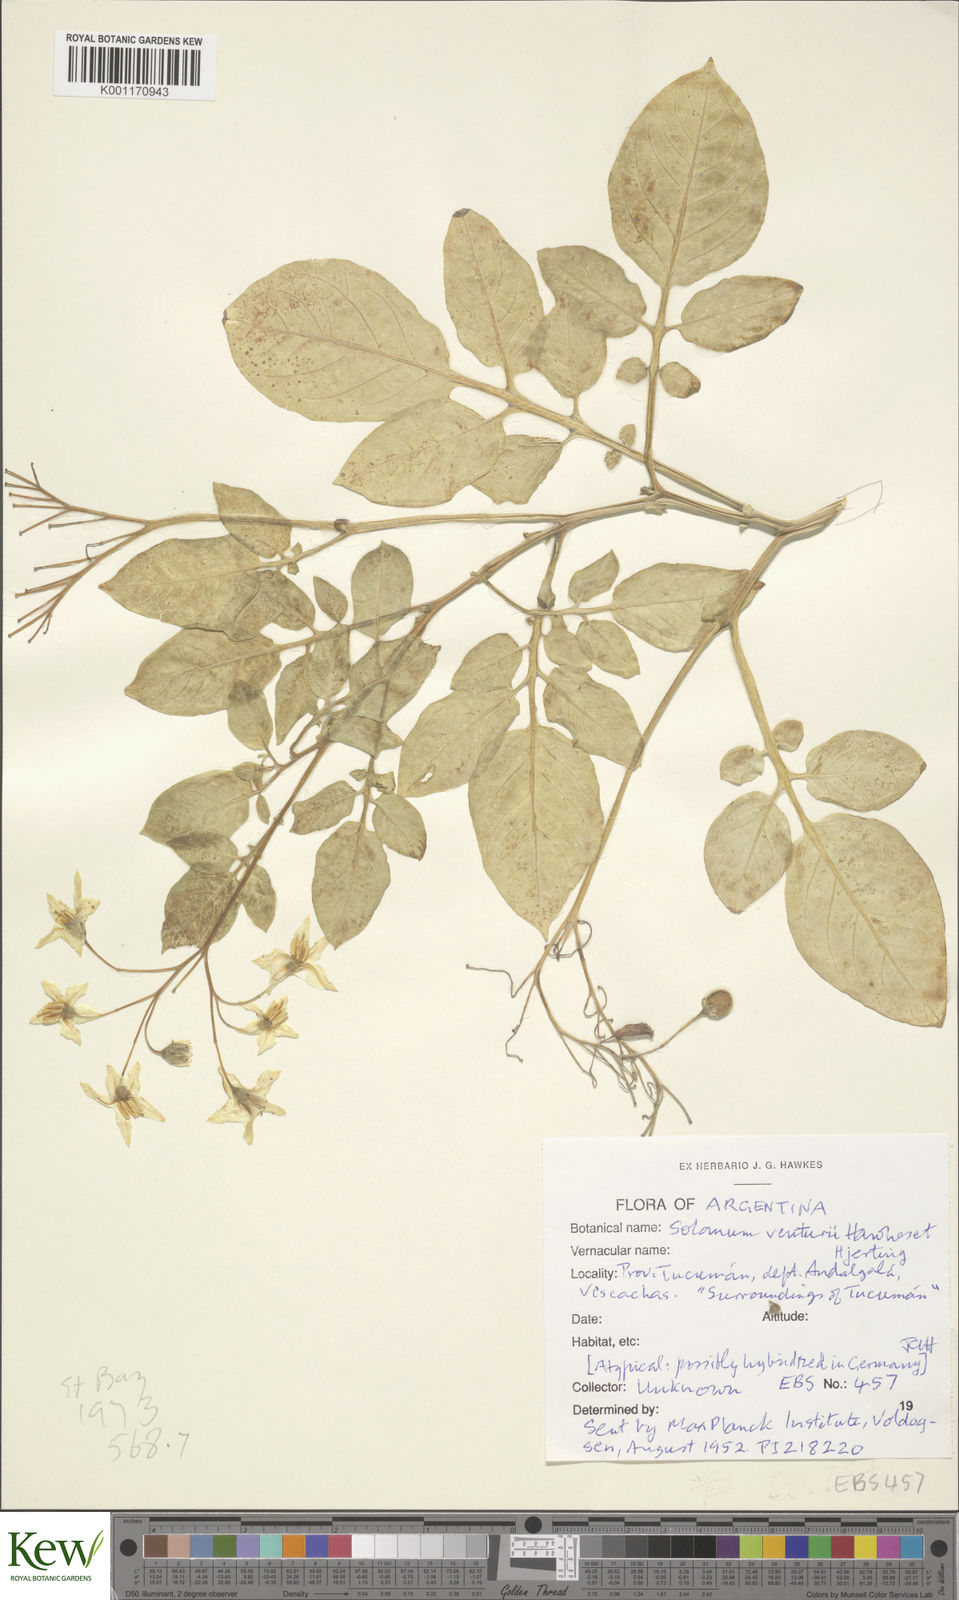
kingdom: Plantae
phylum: Tracheophyta
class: Magnoliopsida
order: Solanales
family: Solanaceae
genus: Solanum
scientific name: Solanum venturii
